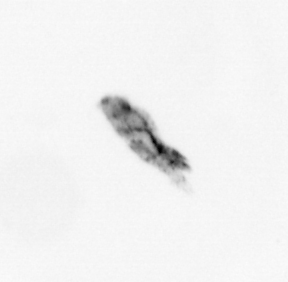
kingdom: Animalia
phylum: Arthropoda
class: Copepoda
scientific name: Copepoda
